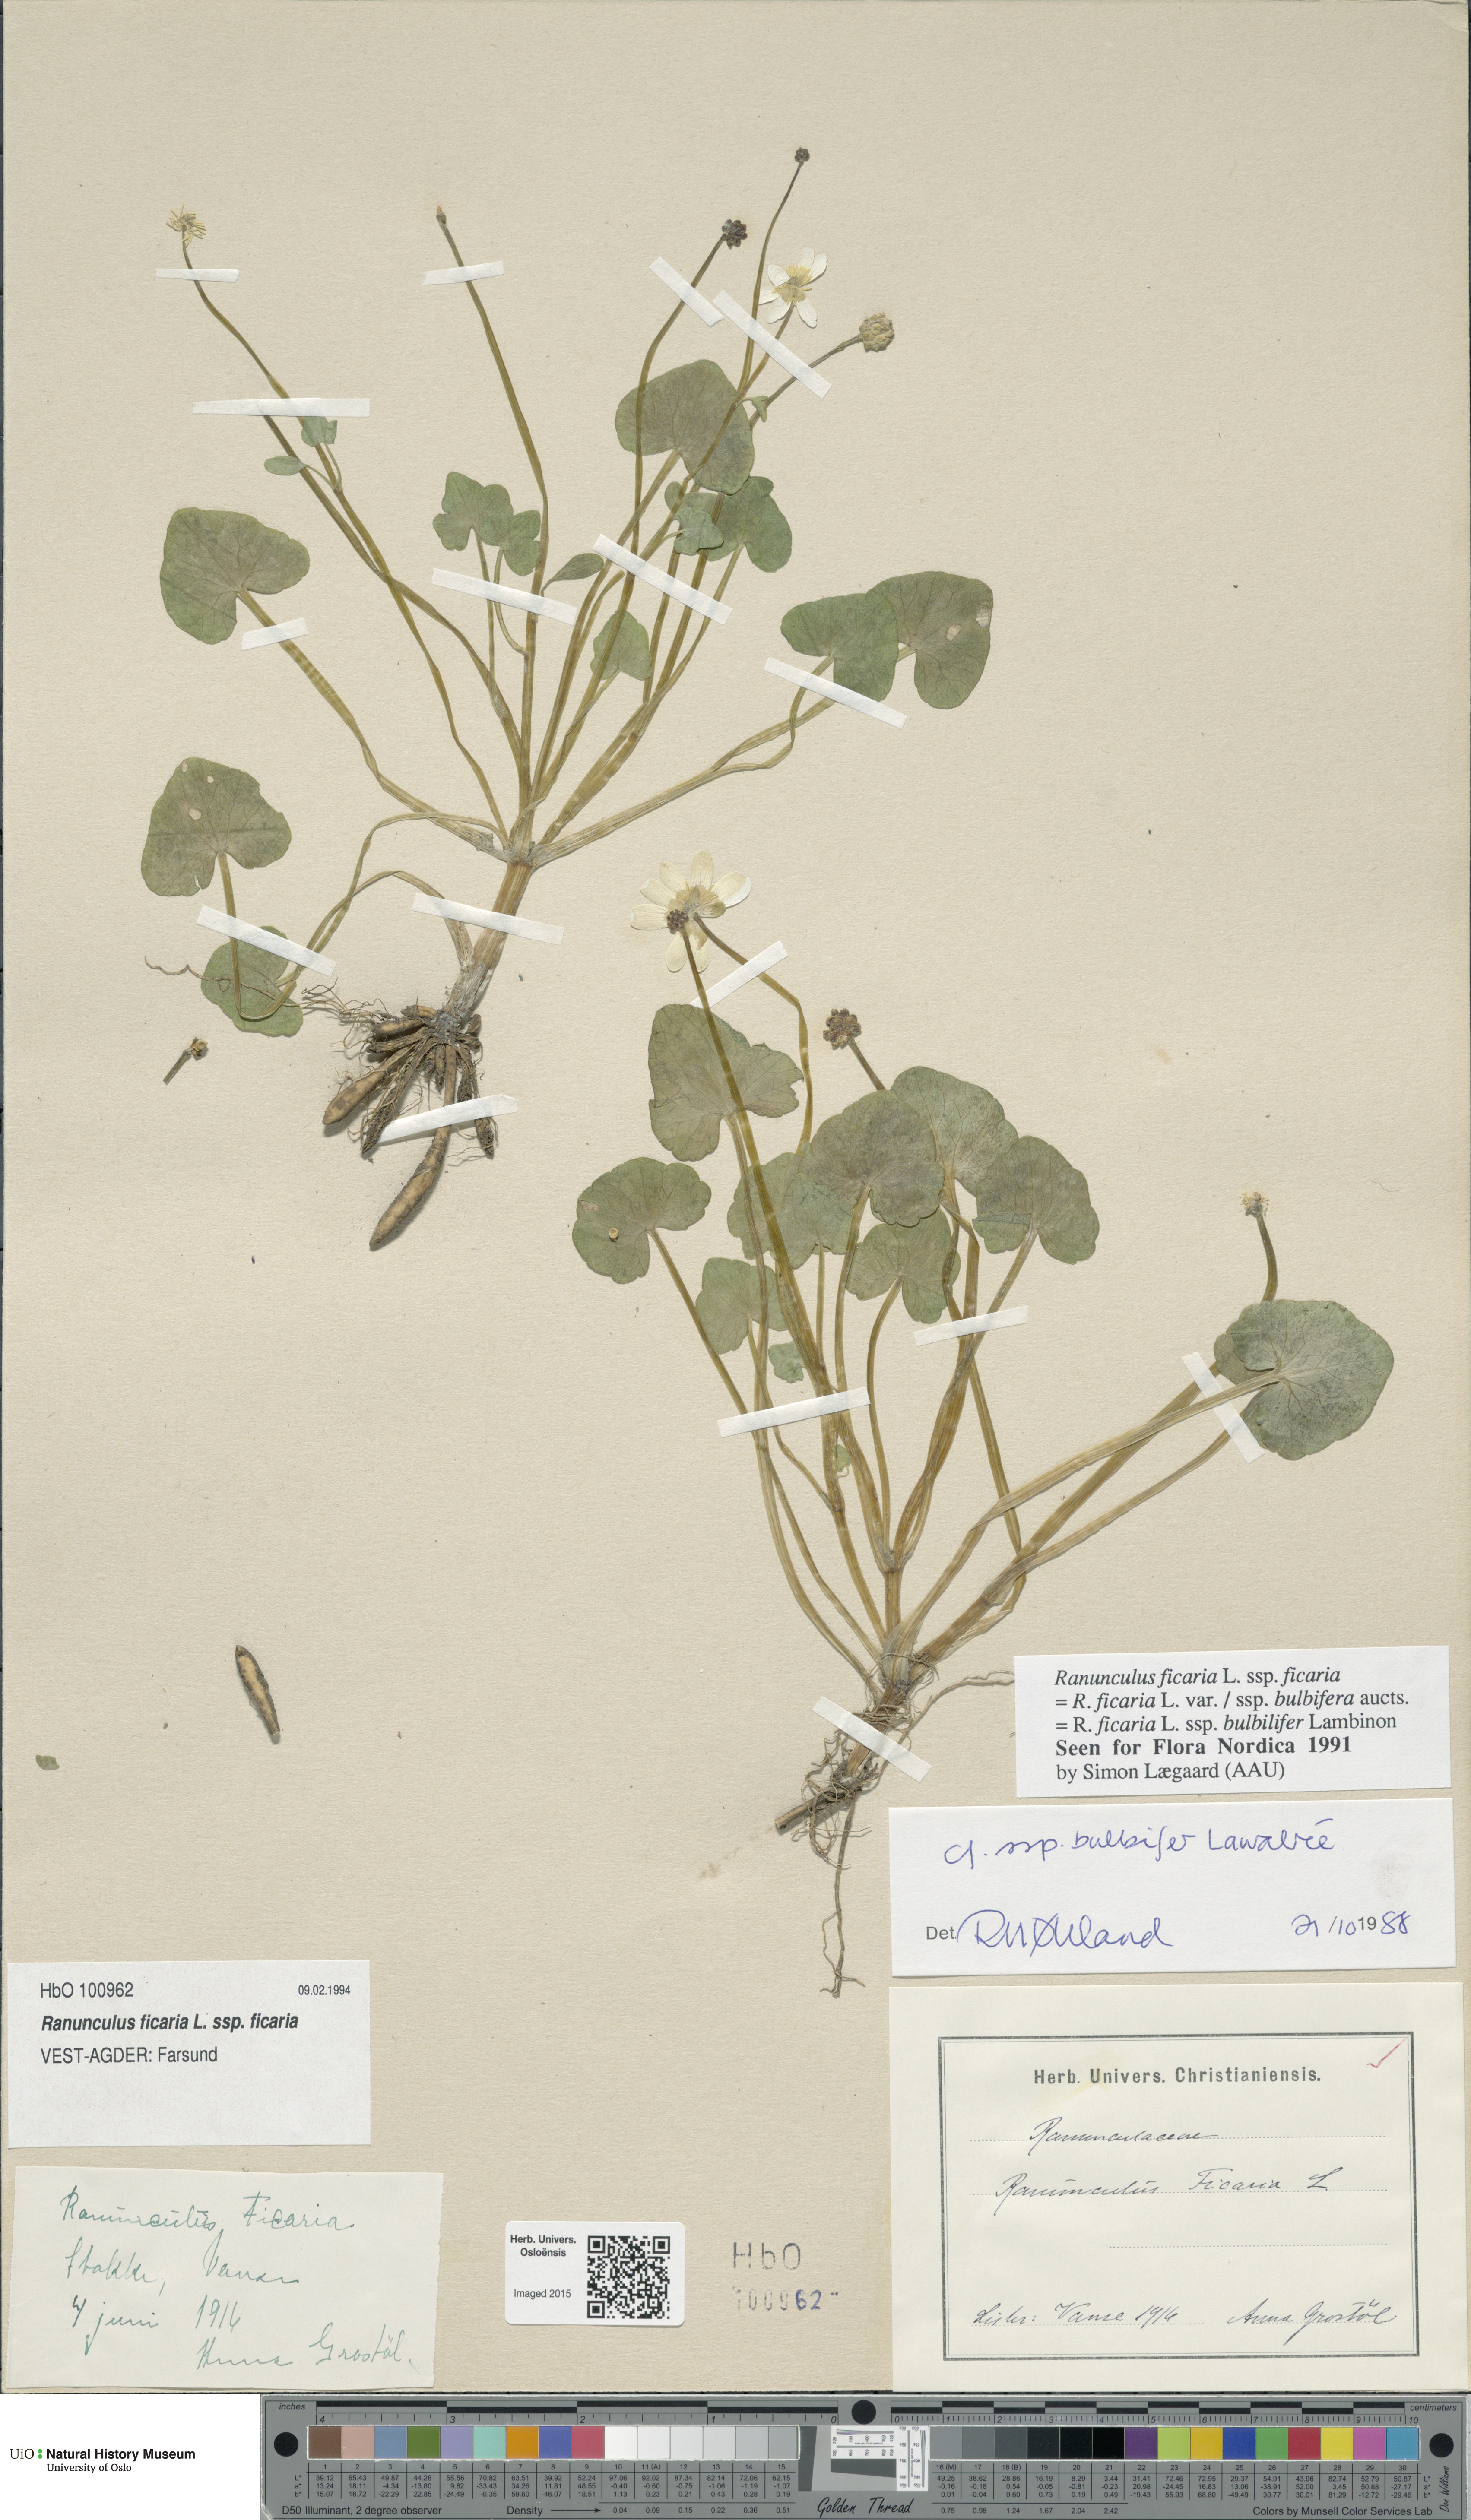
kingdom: Plantae
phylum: Tracheophyta
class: Magnoliopsida
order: Ranunculales
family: Ranunculaceae
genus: Ficaria
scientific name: Ficaria verna
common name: Lesser celandine
